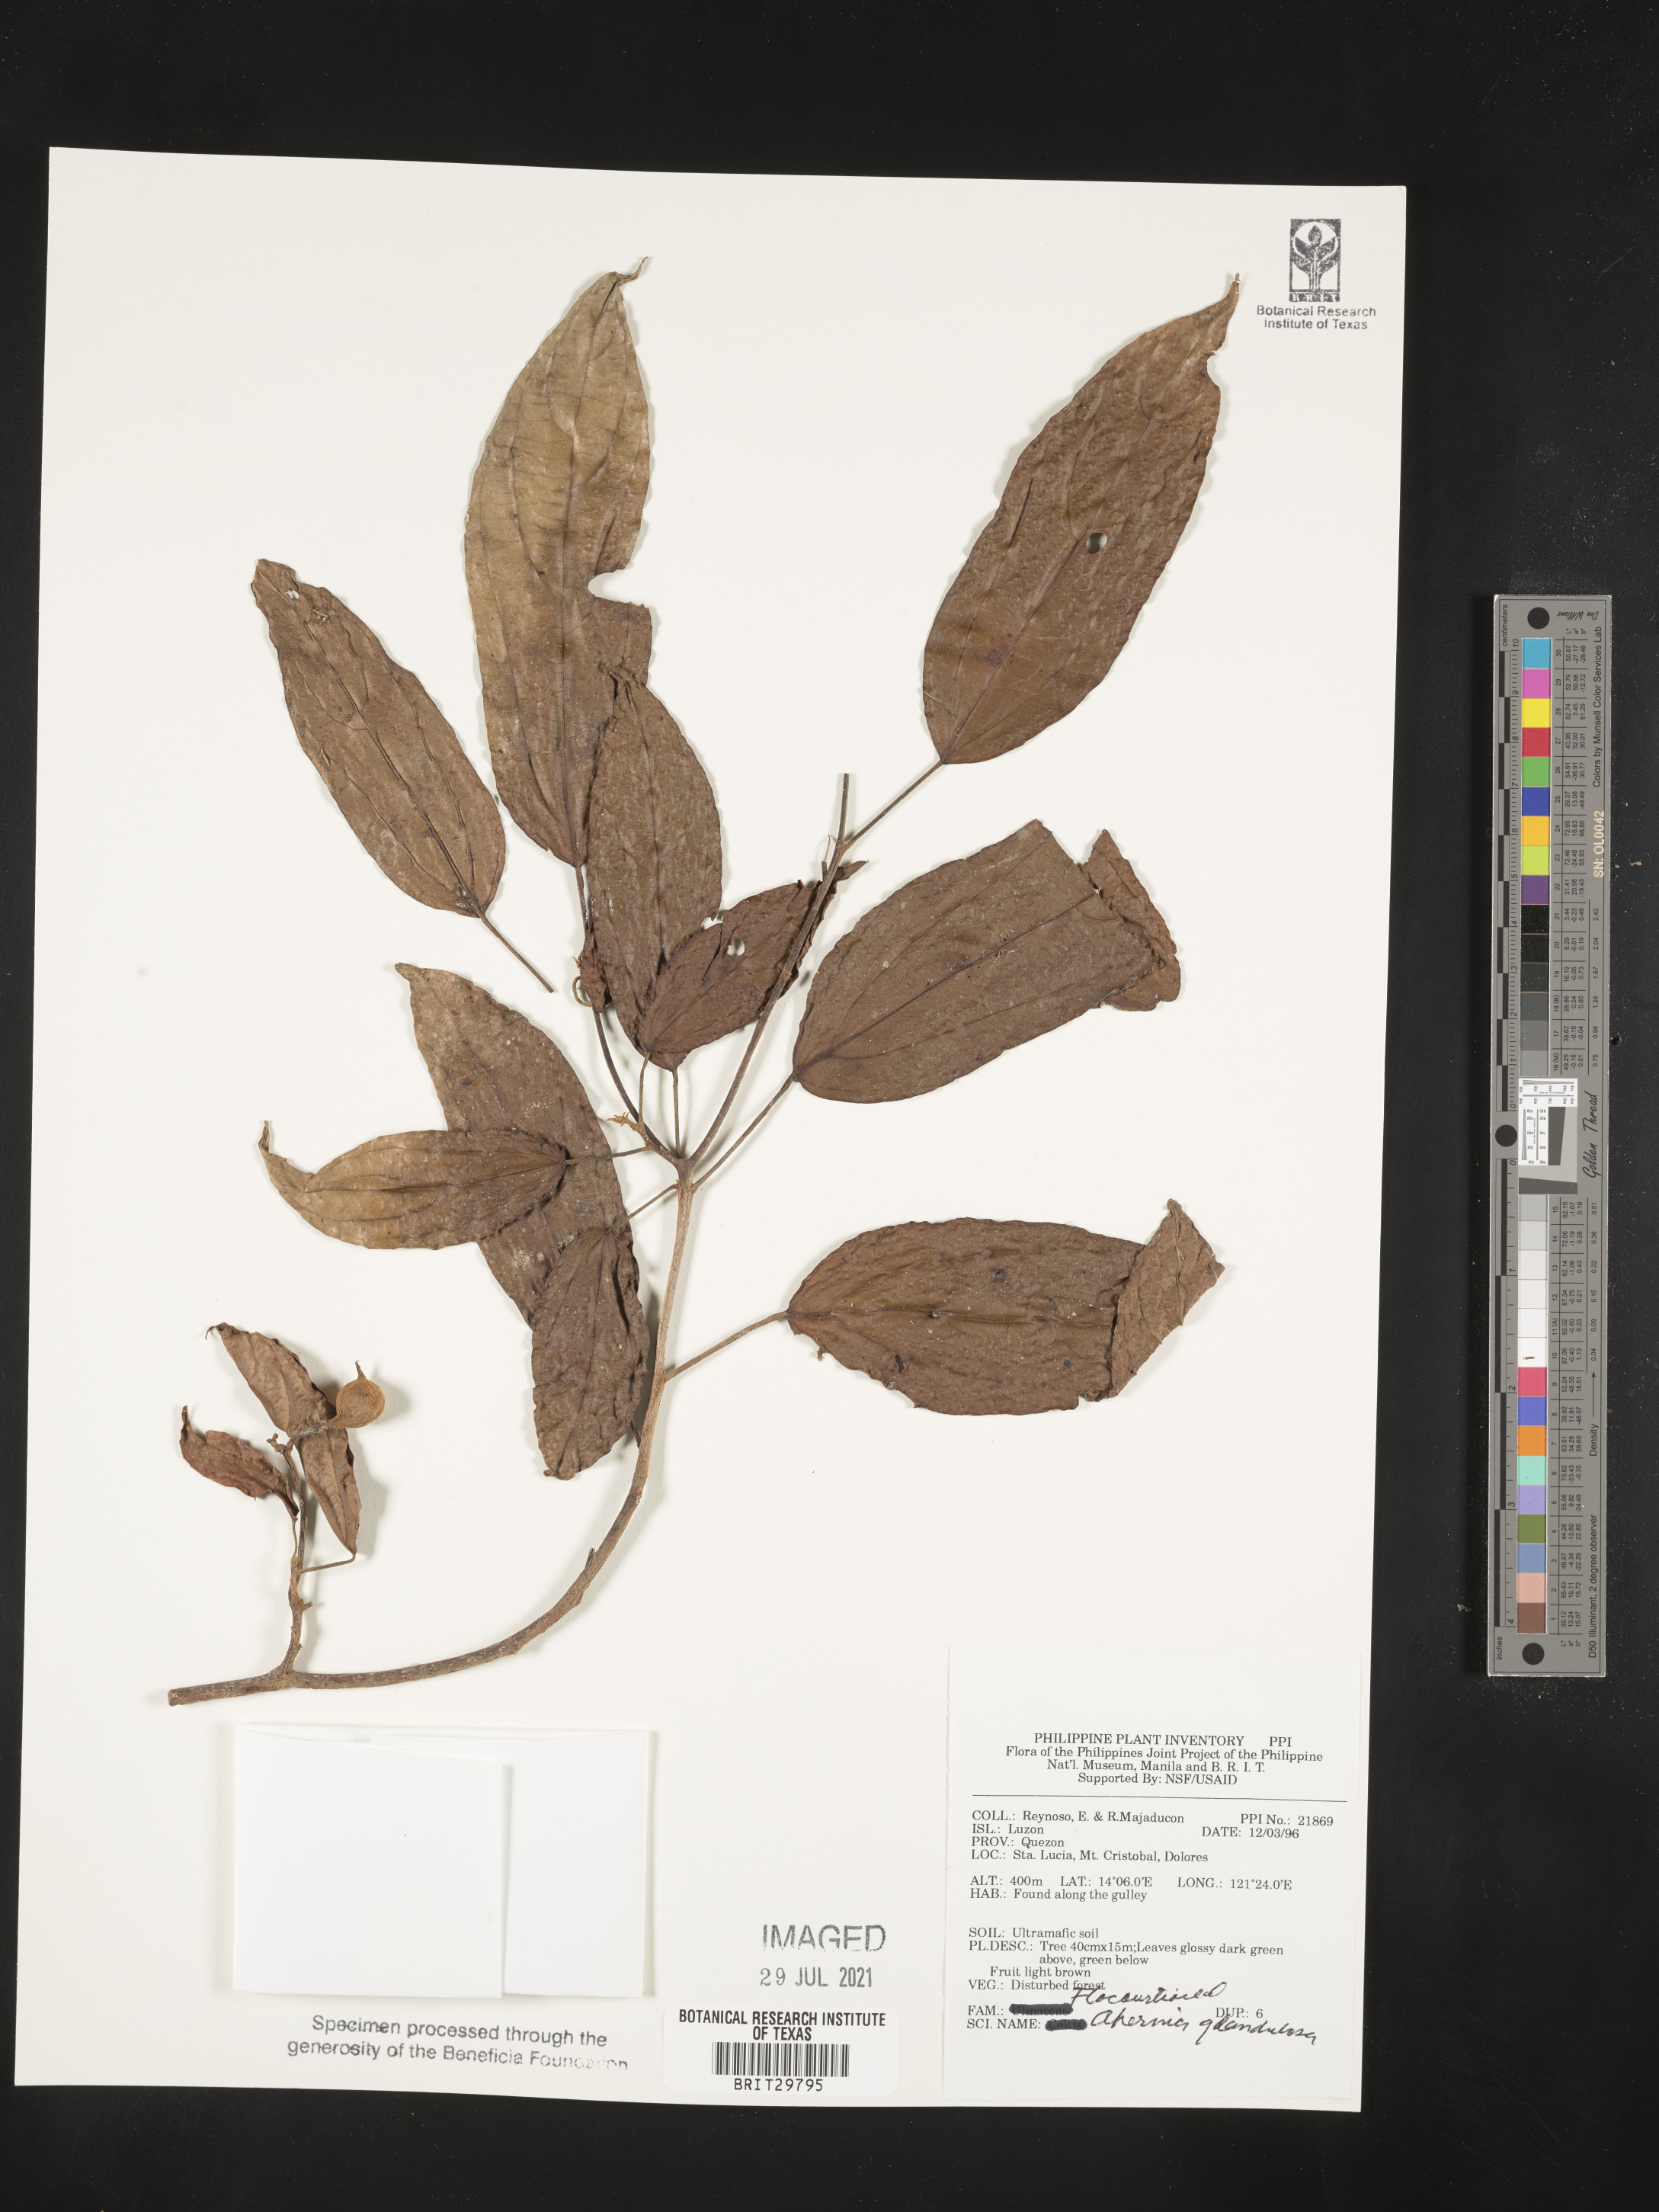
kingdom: Plantae
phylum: Tracheophyta
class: Magnoliopsida
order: Malpighiales
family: Achariaceae
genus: Ahernia
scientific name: Ahernia glandulosa
